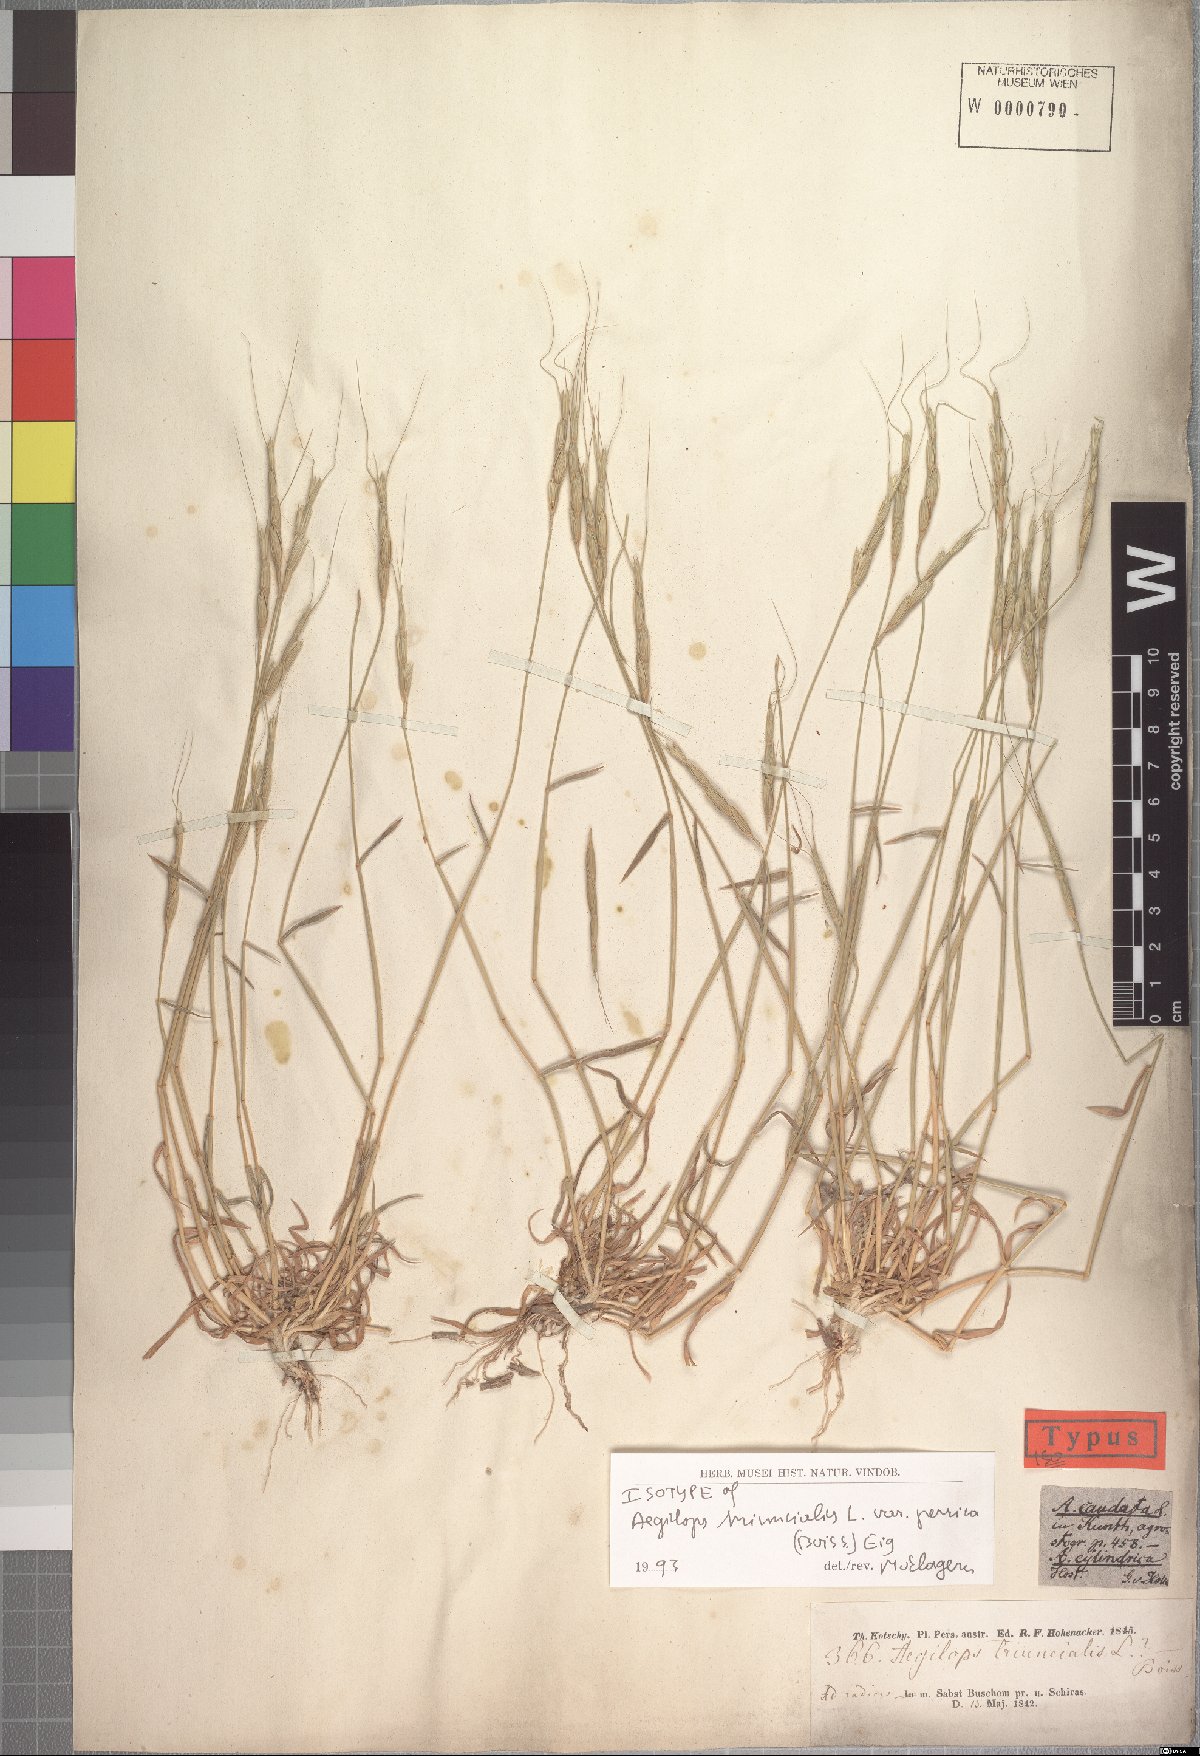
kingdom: Plantae
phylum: Tracheophyta
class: Liliopsida
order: Poales
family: Poaceae
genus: Aegilops
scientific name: Aegilops triuncialis
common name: Barb goat grass
